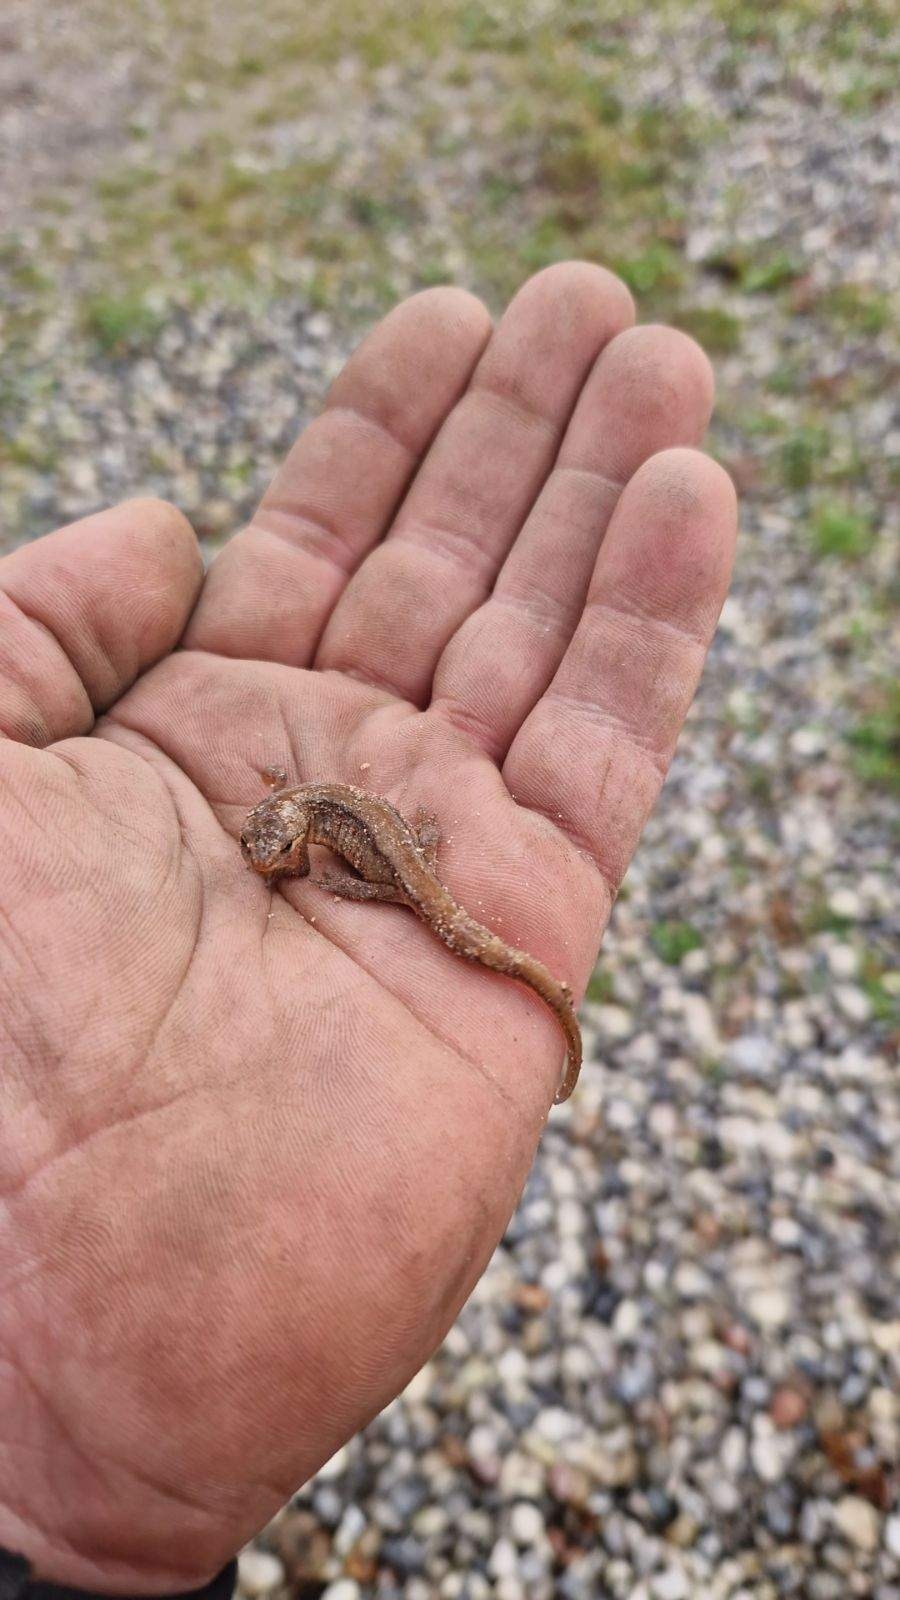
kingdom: Animalia
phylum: Chordata
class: Amphibia
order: Caudata
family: Salamandridae
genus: Lissotriton
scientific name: Lissotriton vulgaris
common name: Lille vandsalamander
